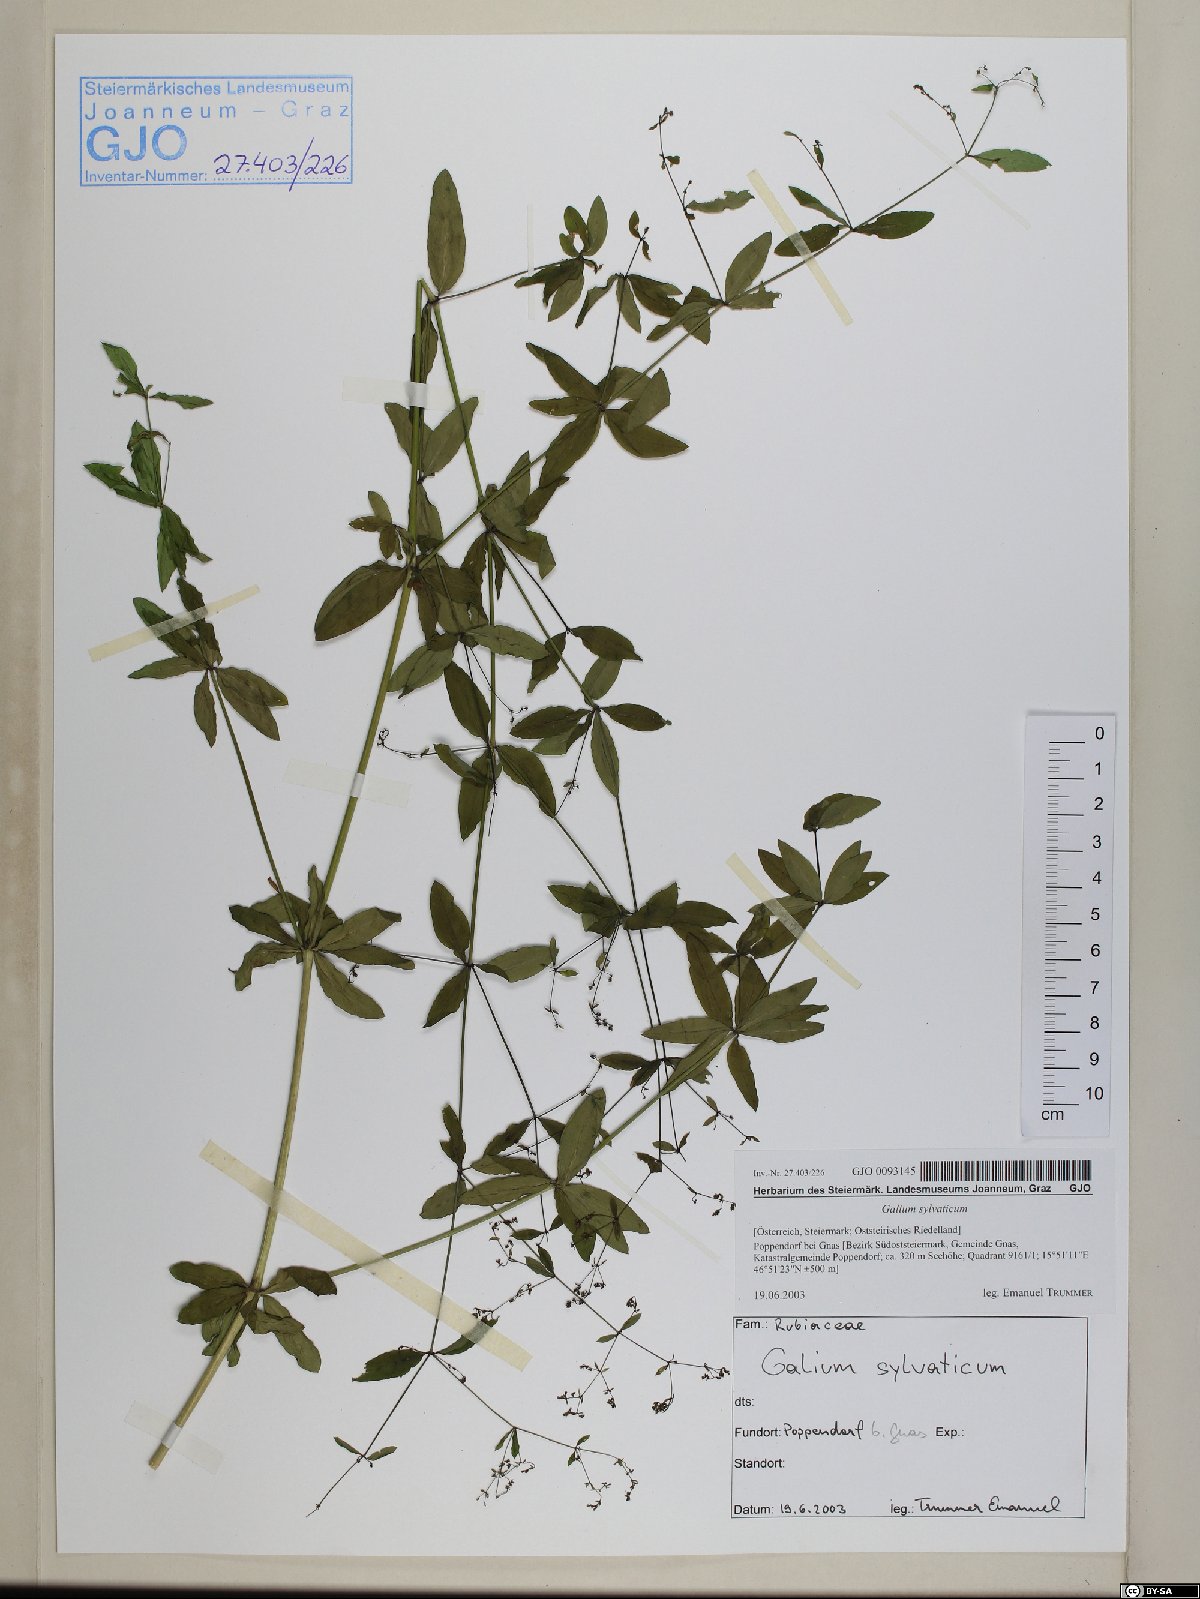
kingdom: Plantae
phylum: Tracheophyta
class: Magnoliopsida
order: Gentianales
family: Rubiaceae
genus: Galium
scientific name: Galium sylvaticum
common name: Wood bedstraw
